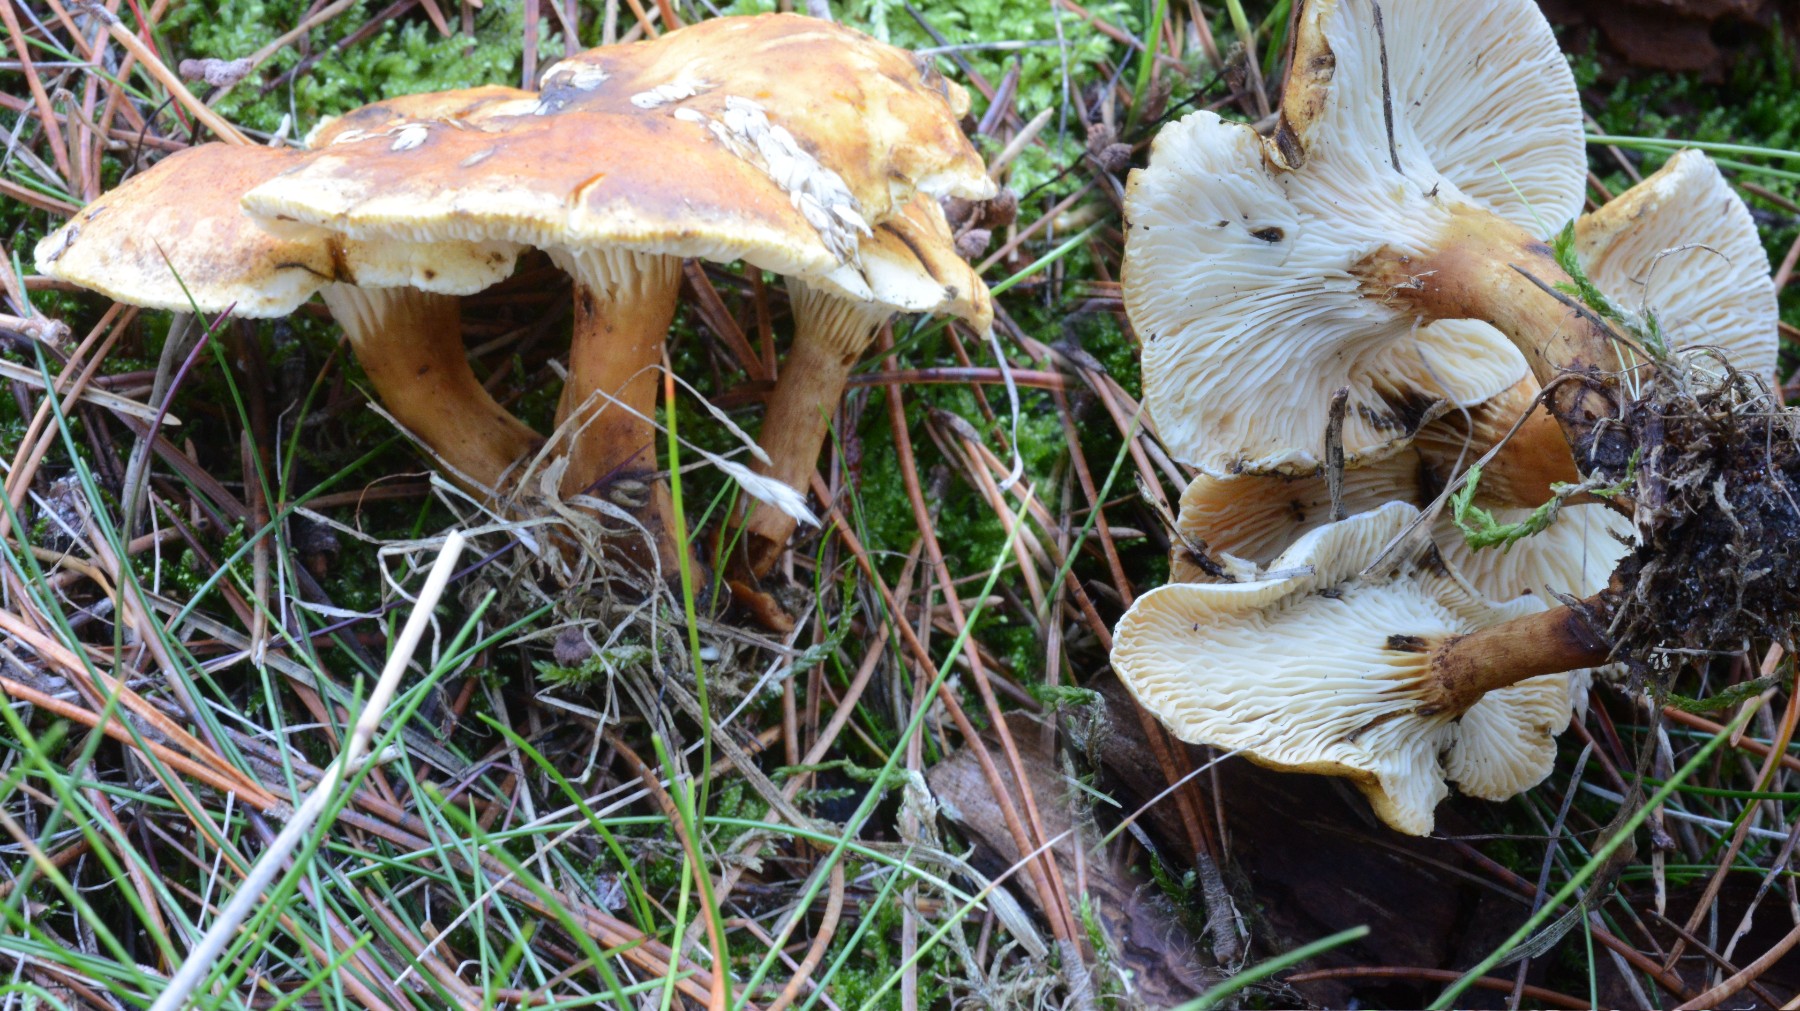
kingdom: Fungi
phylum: Basidiomycota
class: Agaricomycetes
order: Boletales
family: Hygrophoropsidaceae
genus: Hygrophoropsis
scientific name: Hygrophoropsis pallida
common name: bleg orangekantarel
